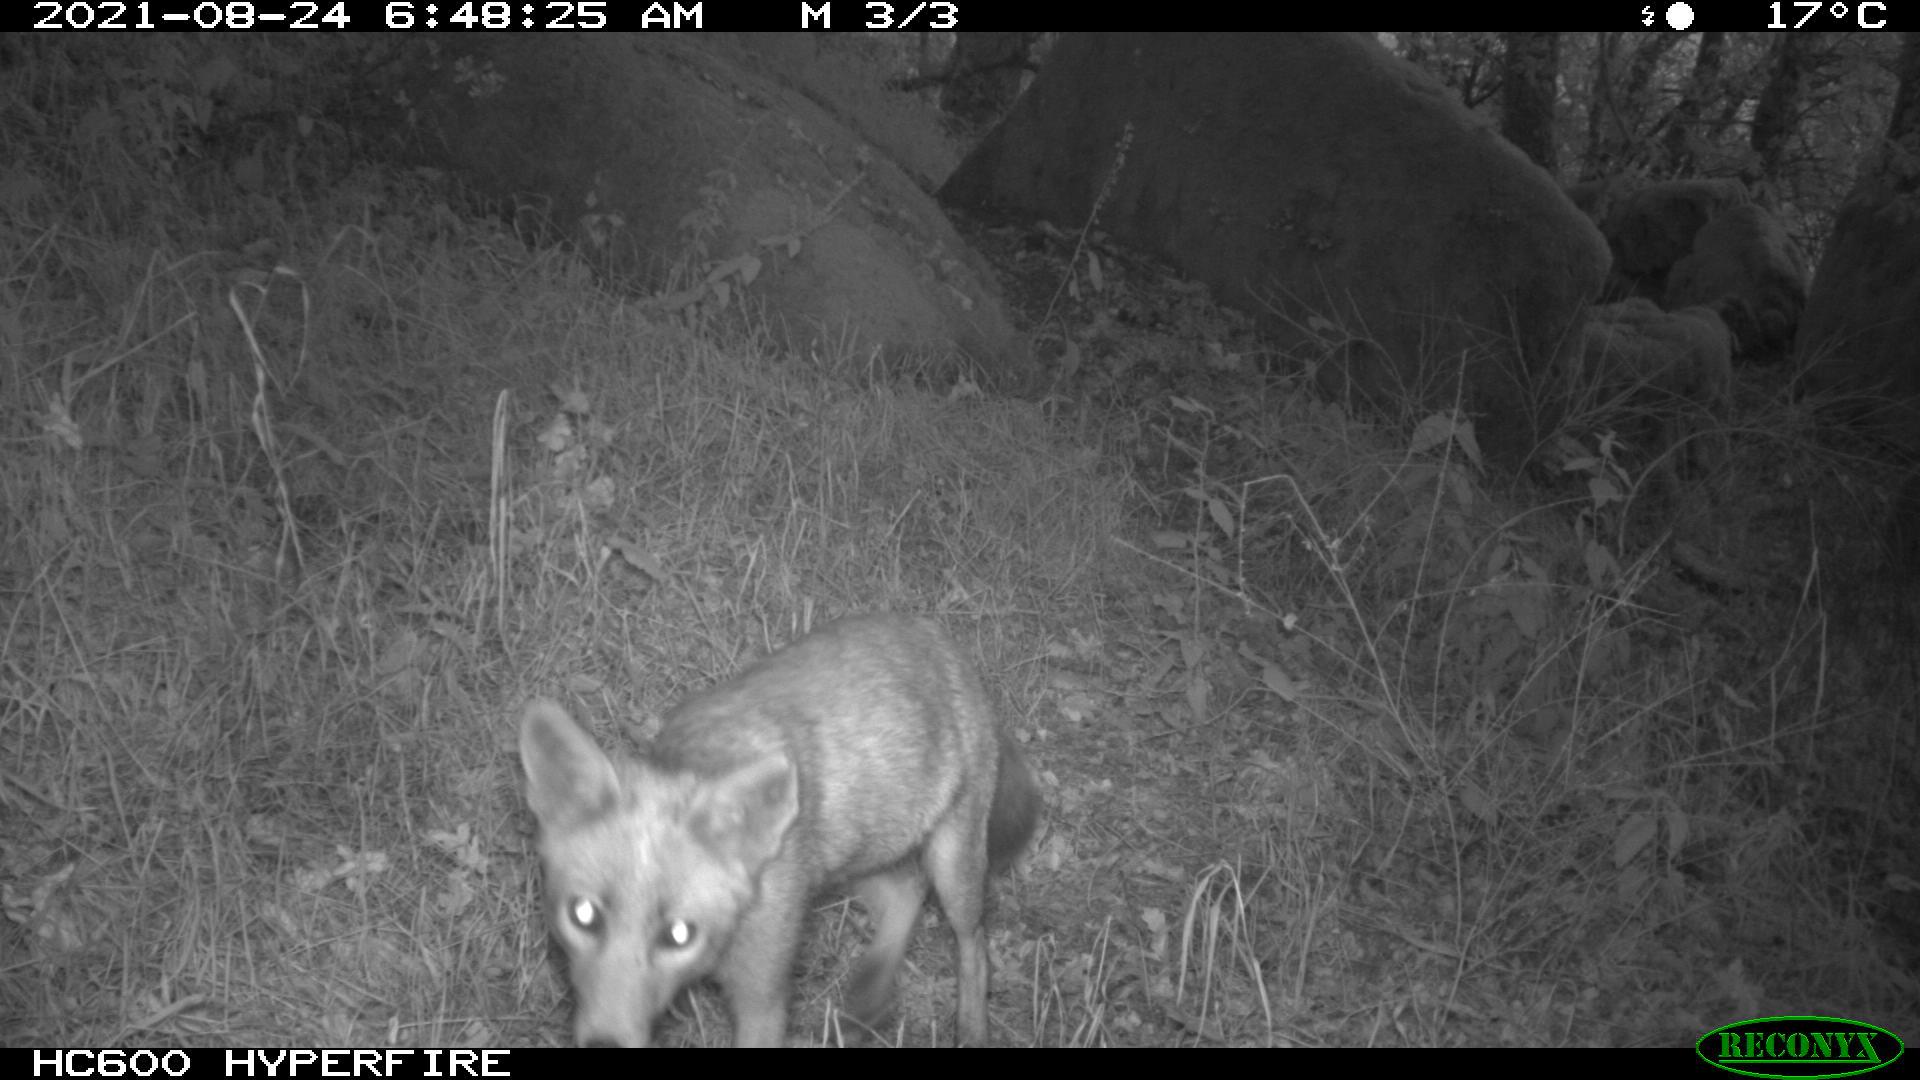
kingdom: Animalia
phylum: Chordata
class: Mammalia
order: Carnivora
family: Canidae
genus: Vulpes
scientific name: Vulpes vulpes
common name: Red fox
